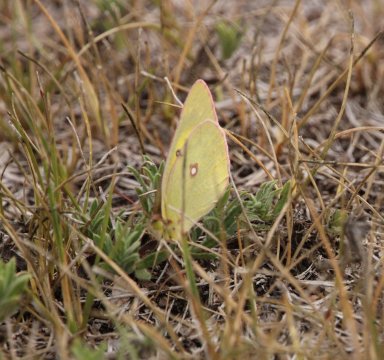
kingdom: Animalia
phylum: Arthropoda
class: Insecta
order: Lepidoptera
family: Pieridae
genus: Colias
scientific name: Colias
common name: Clouded Yellows
